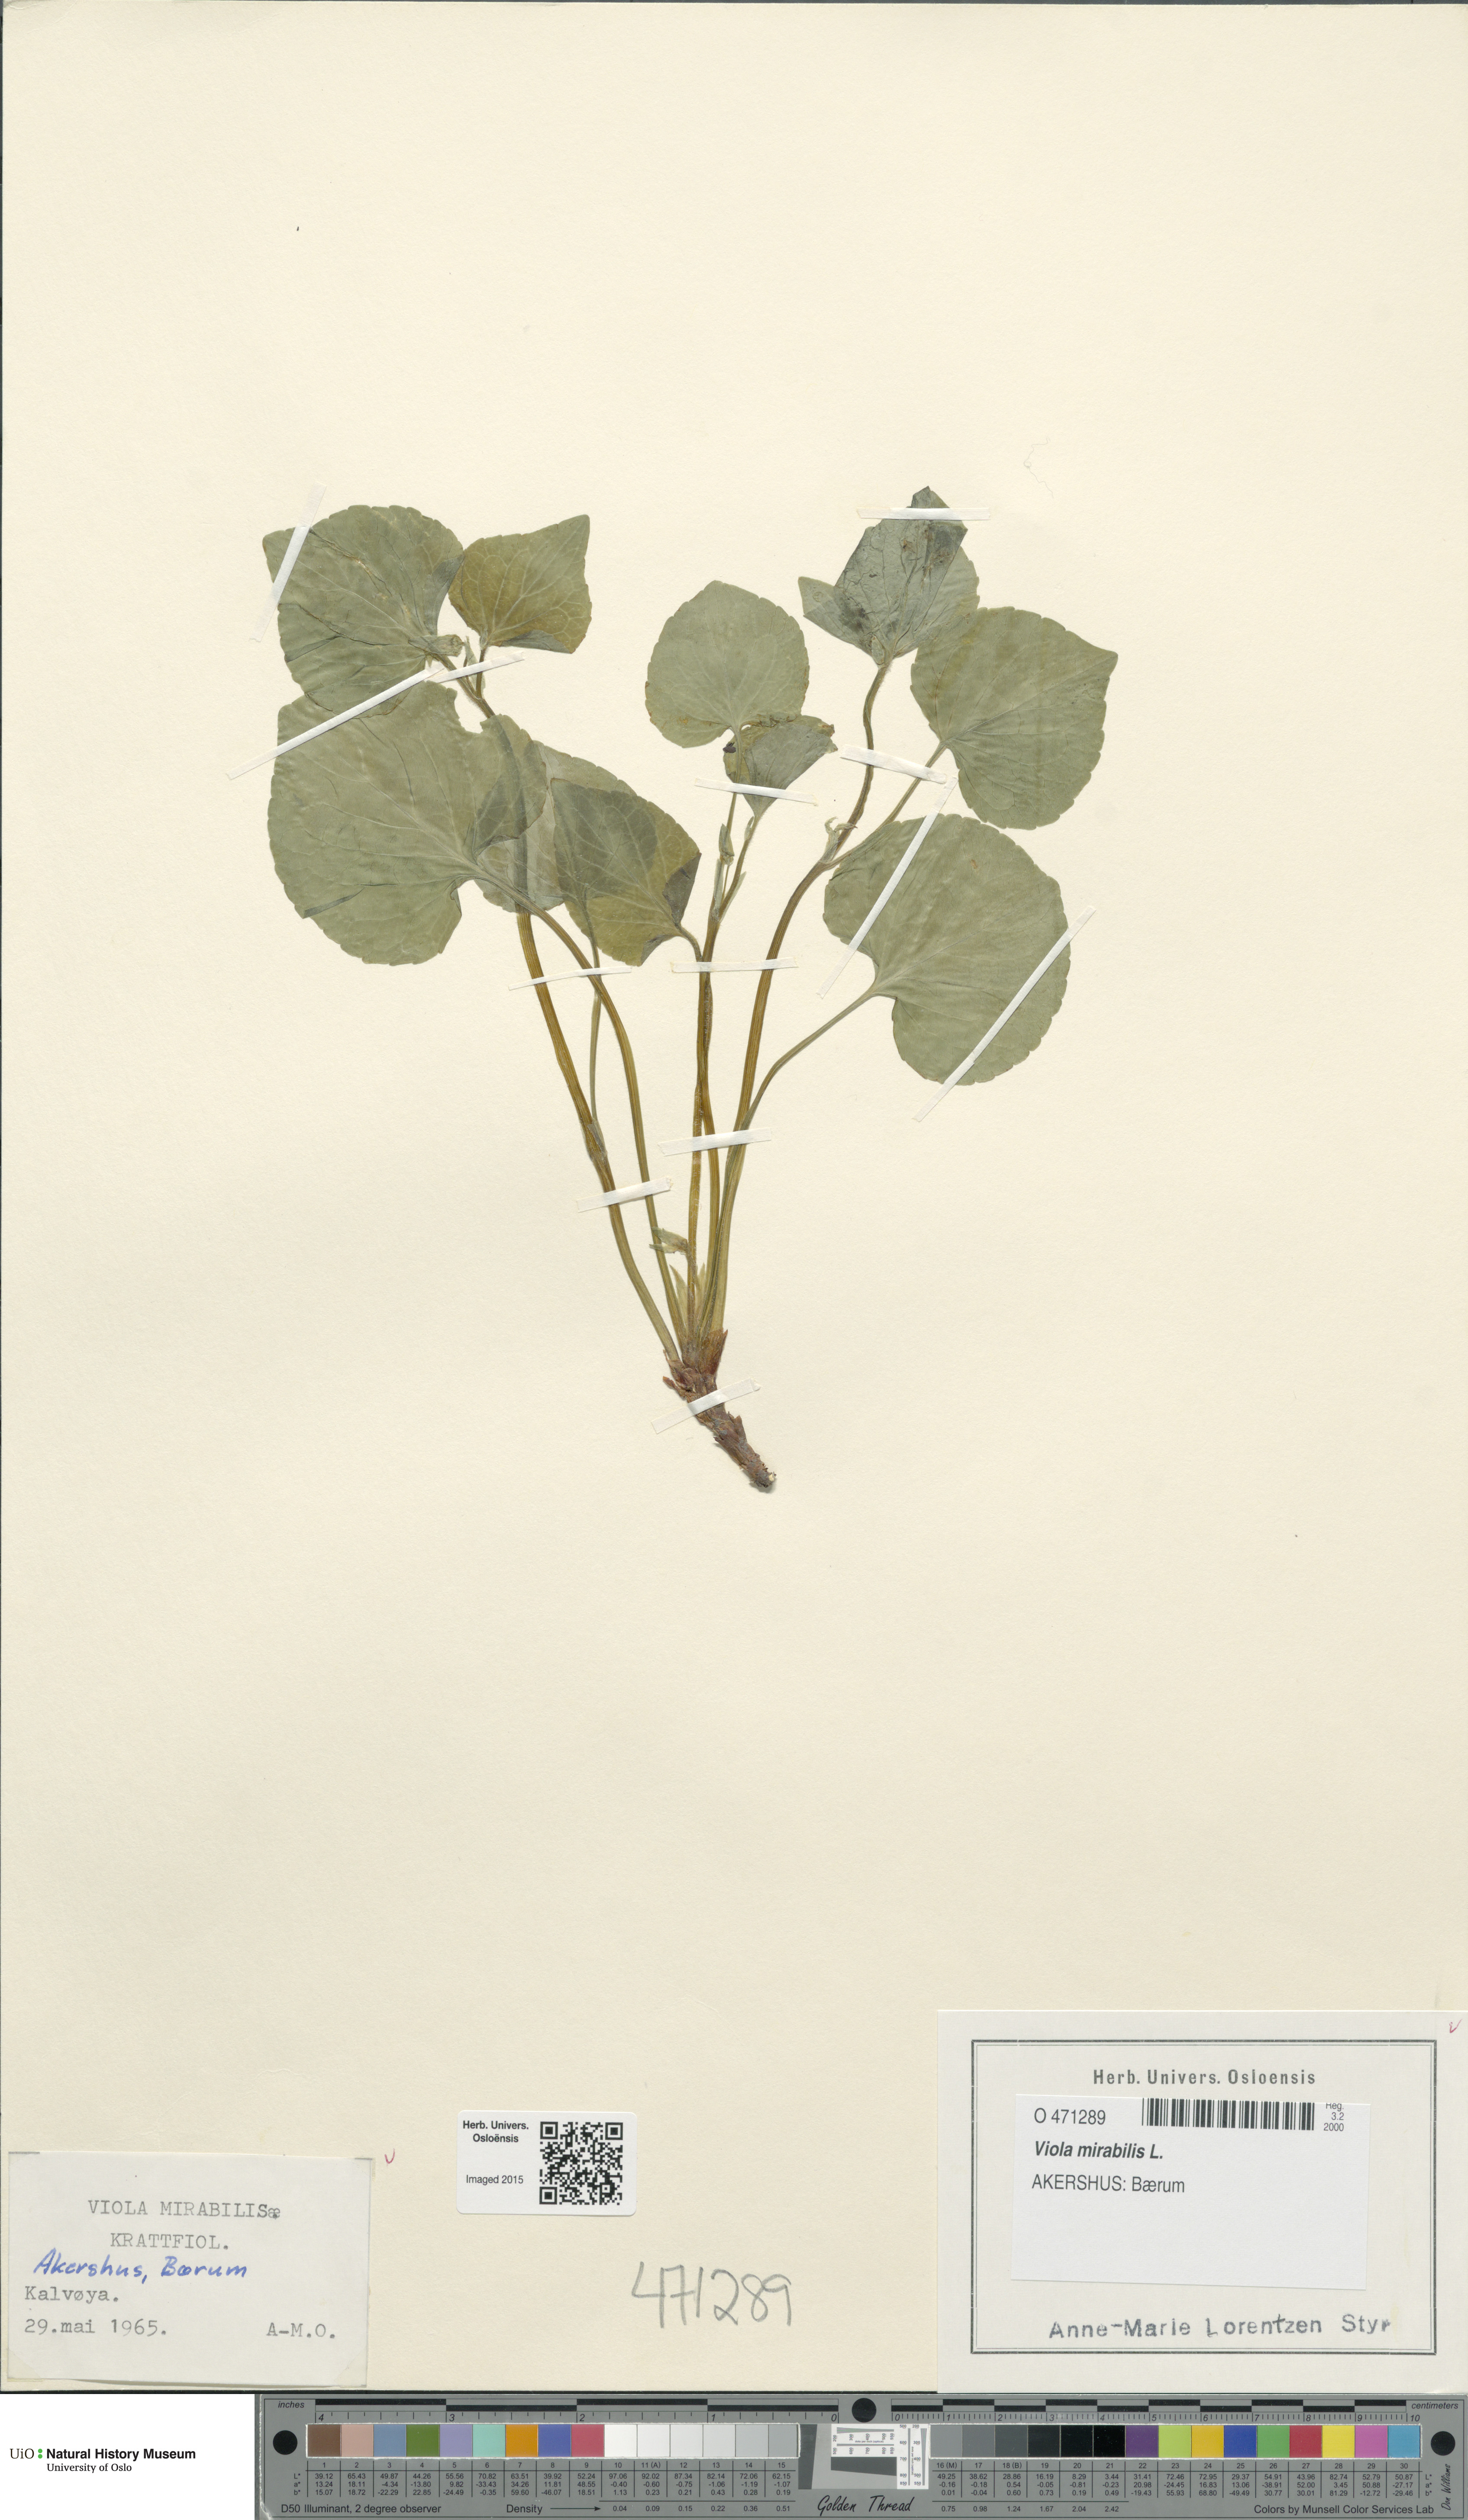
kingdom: Plantae
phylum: Tracheophyta
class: Magnoliopsida
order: Malpighiales
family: Violaceae
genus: Viola
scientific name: Viola mirabilis
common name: Wonder violet
